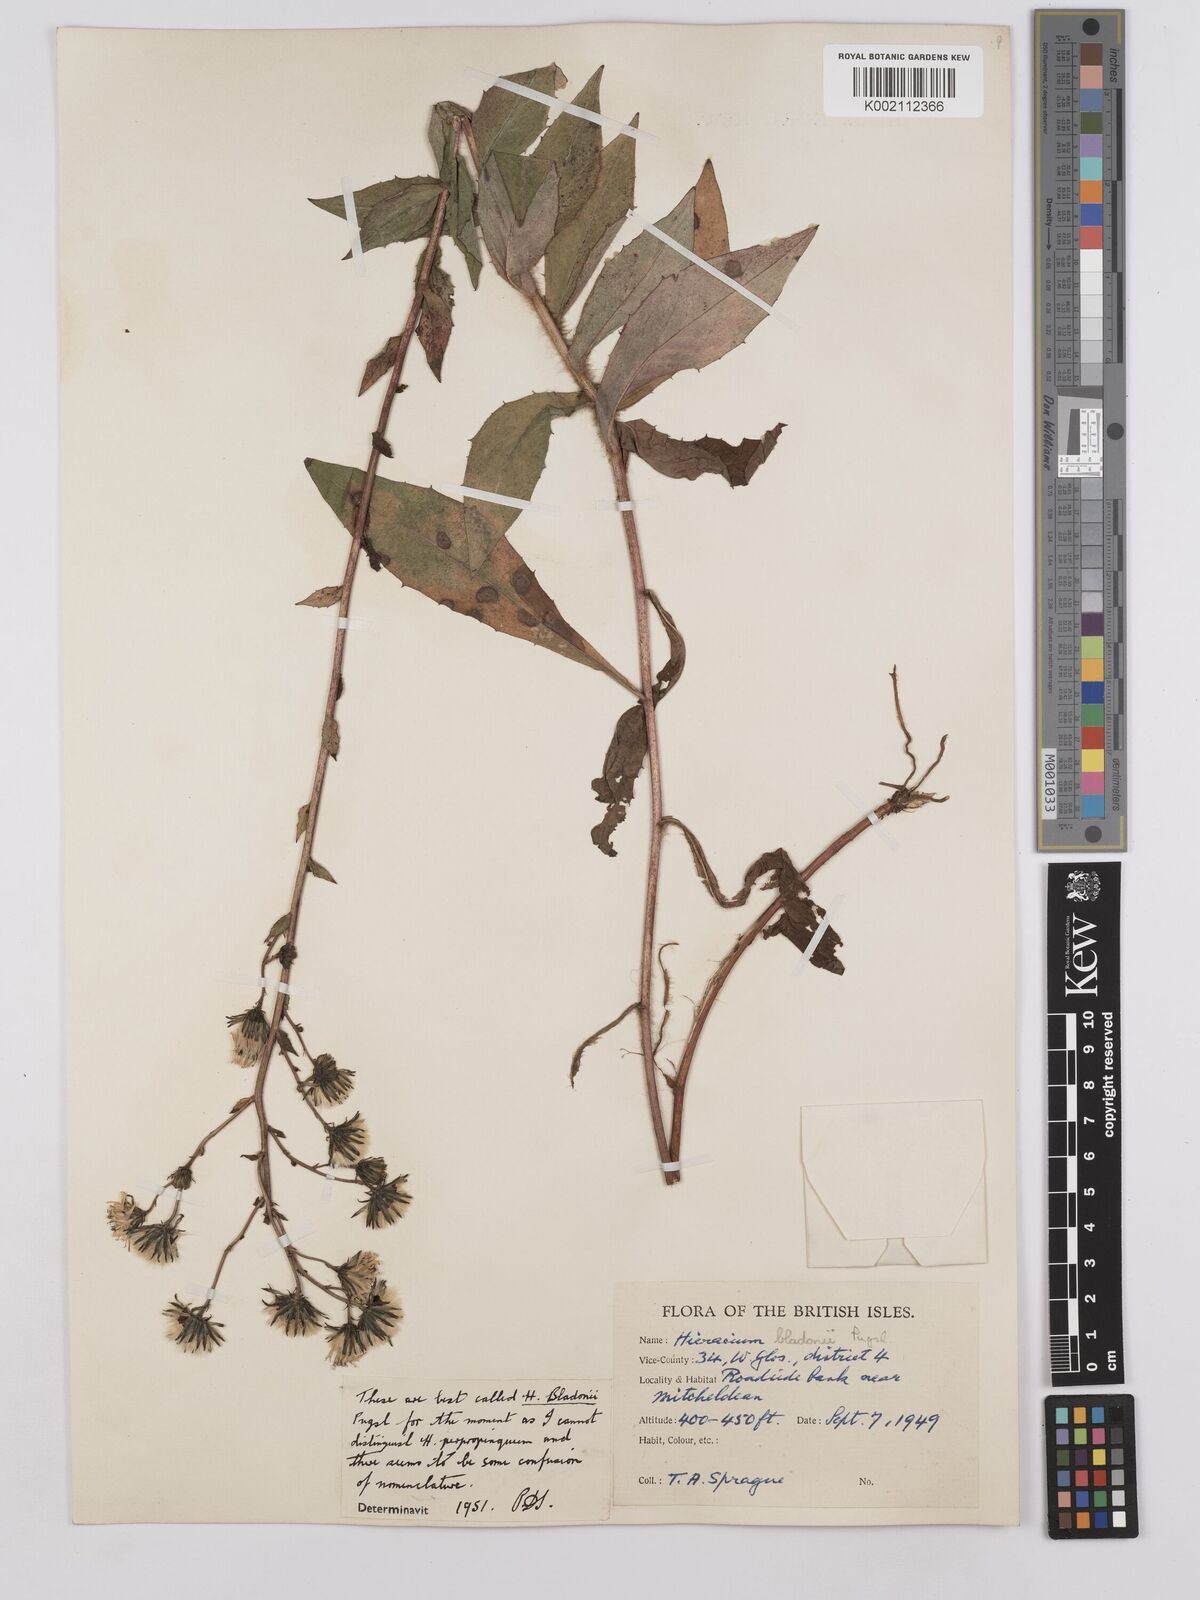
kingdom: Plantae
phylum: Tracheophyta
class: Magnoliopsida
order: Asterales
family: Asteraceae
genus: Hieracium
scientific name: Hieracium sabaudum
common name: New england hawkweed
